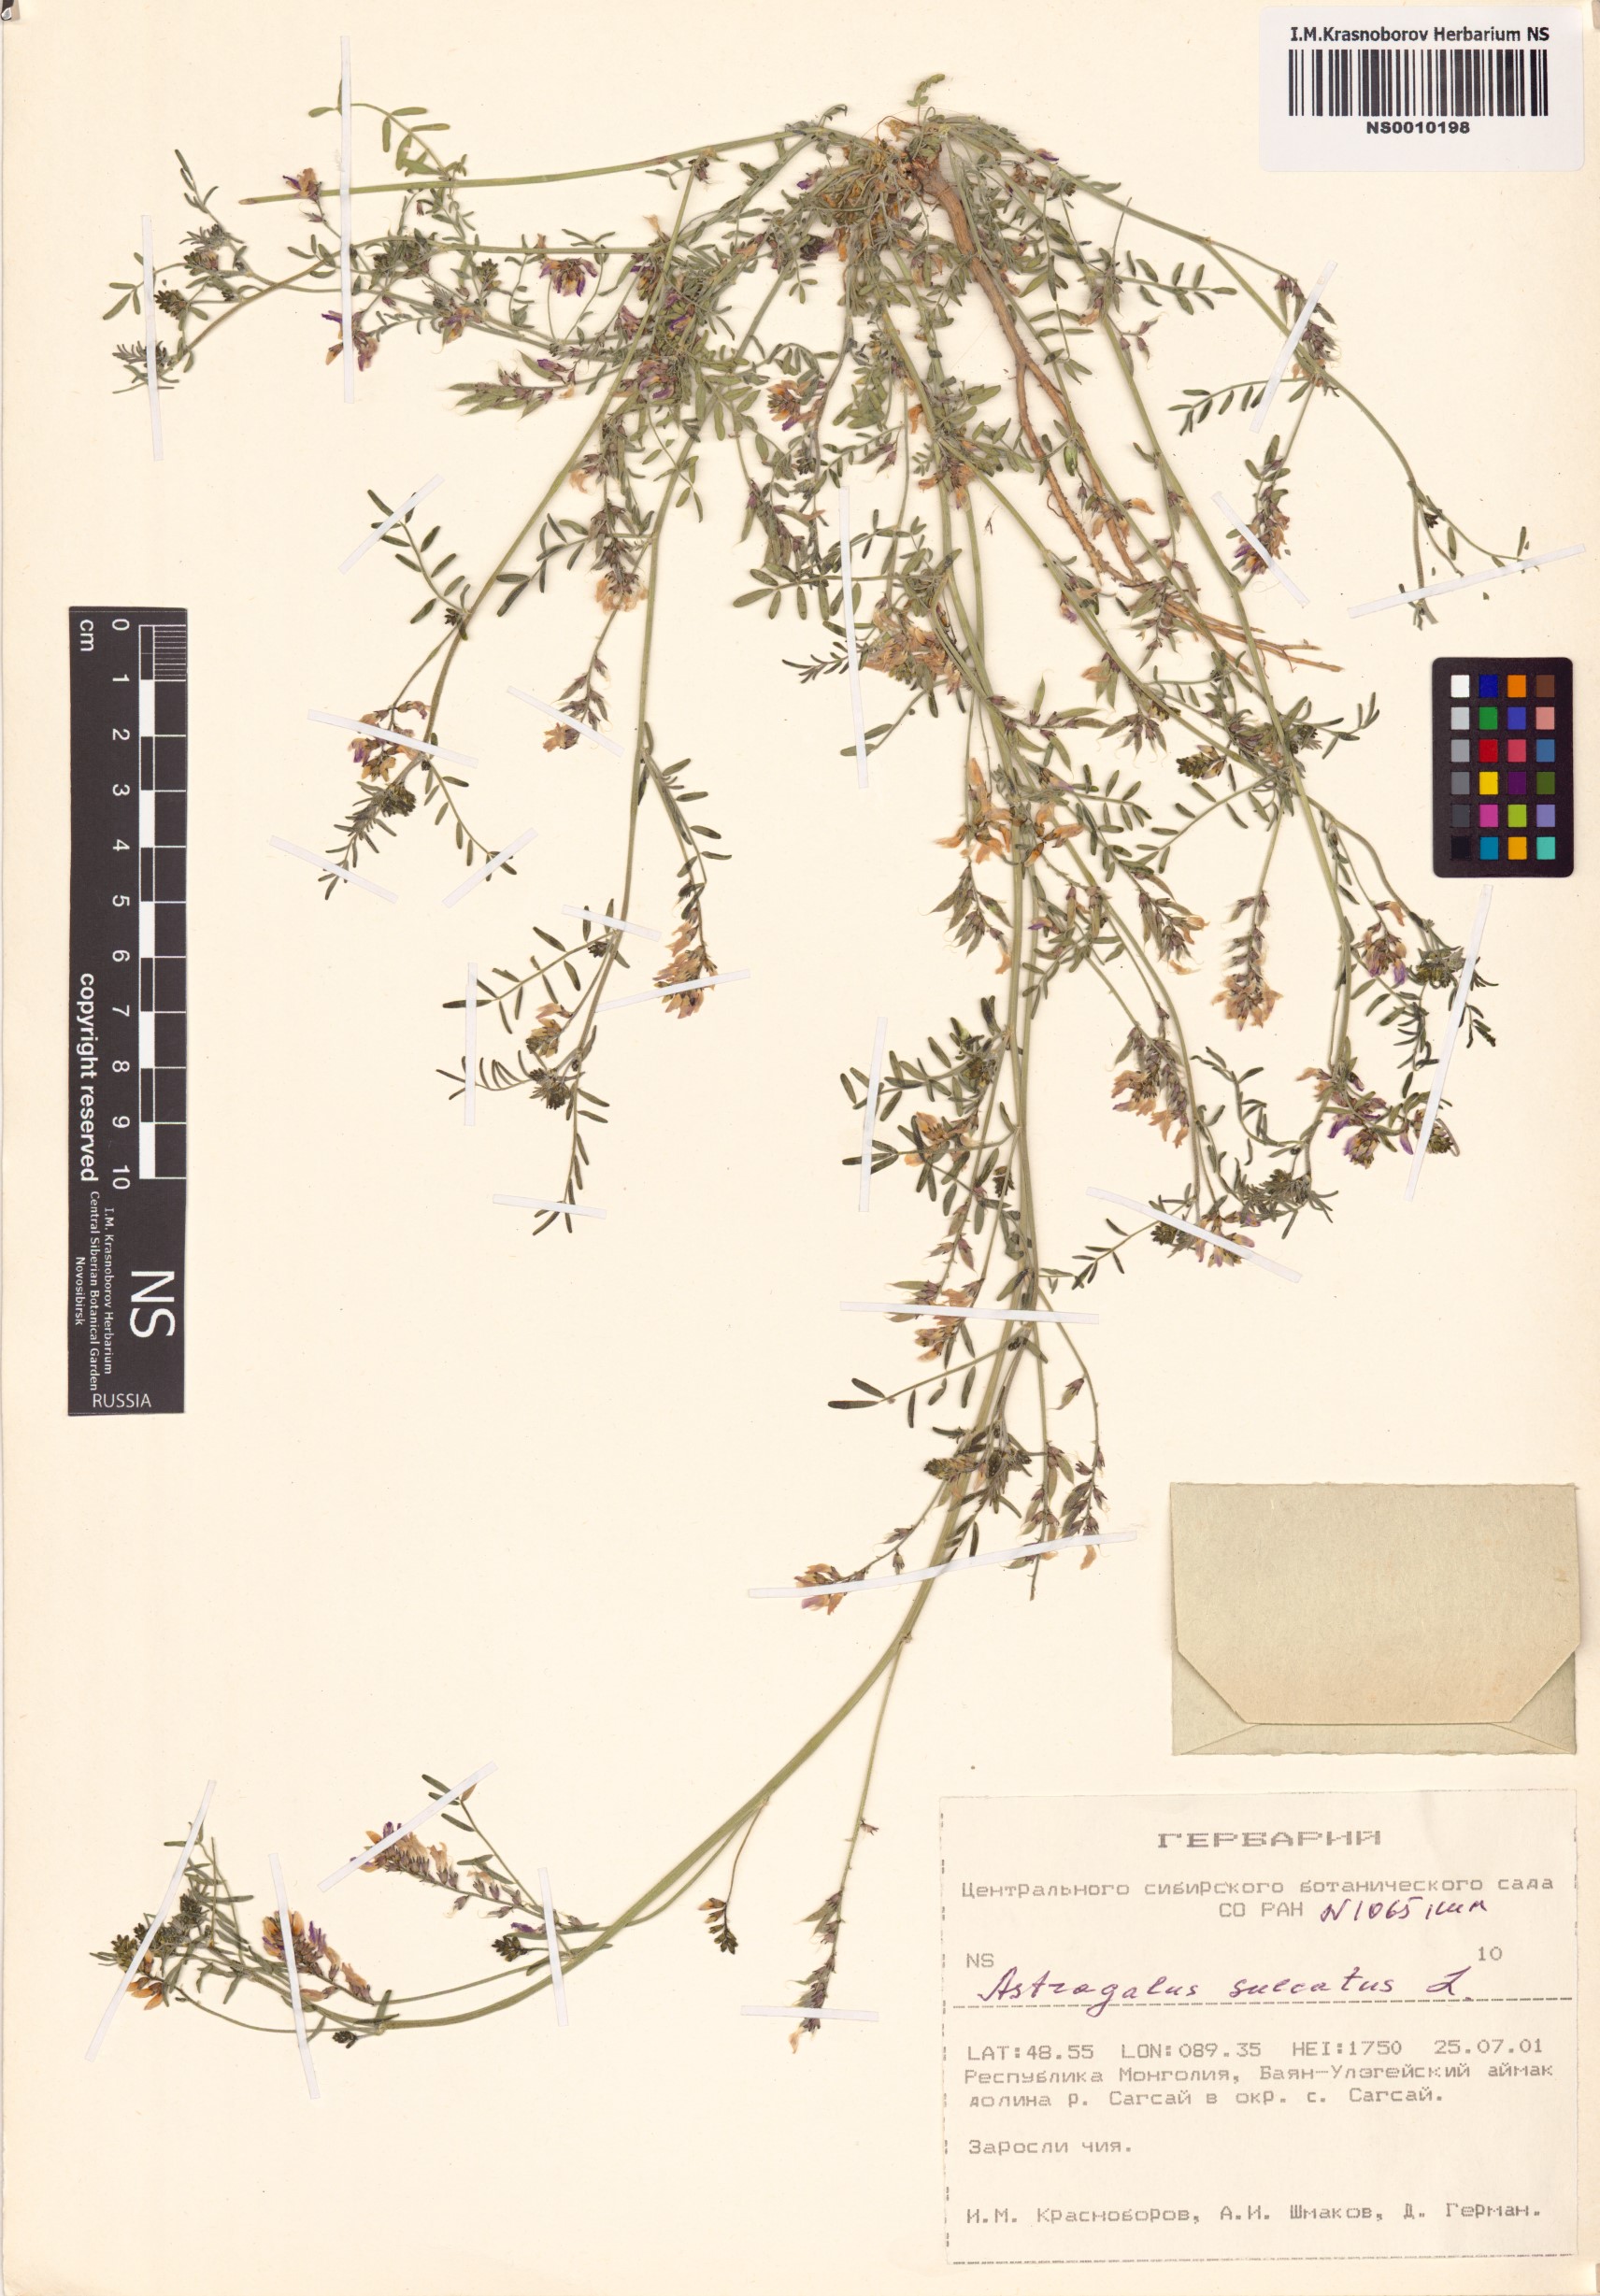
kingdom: Plantae
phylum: Tracheophyta
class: Magnoliopsida
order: Fabales
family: Fabaceae
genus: Astragalus
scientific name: Astragalus sulcatus
